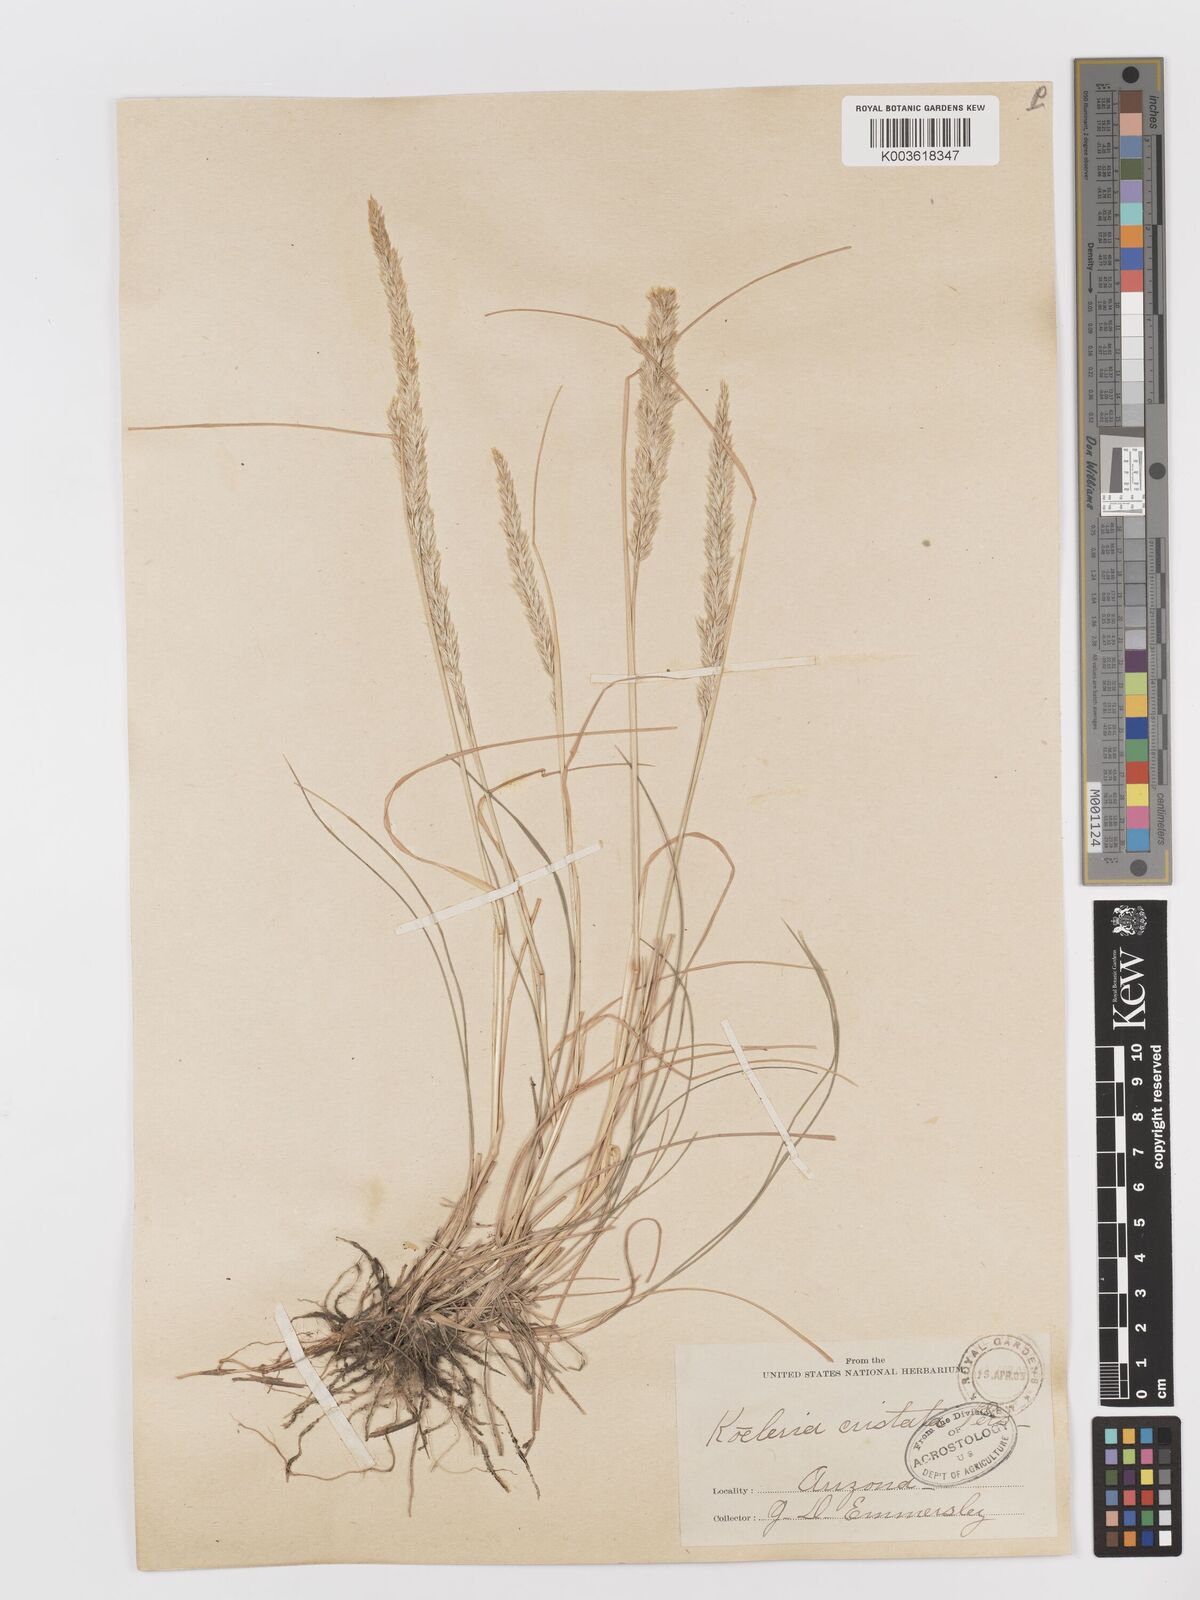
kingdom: Plantae
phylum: Tracheophyta
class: Liliopsida
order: Poales
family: Poaceae
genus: Koeleria
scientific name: Koeleria
